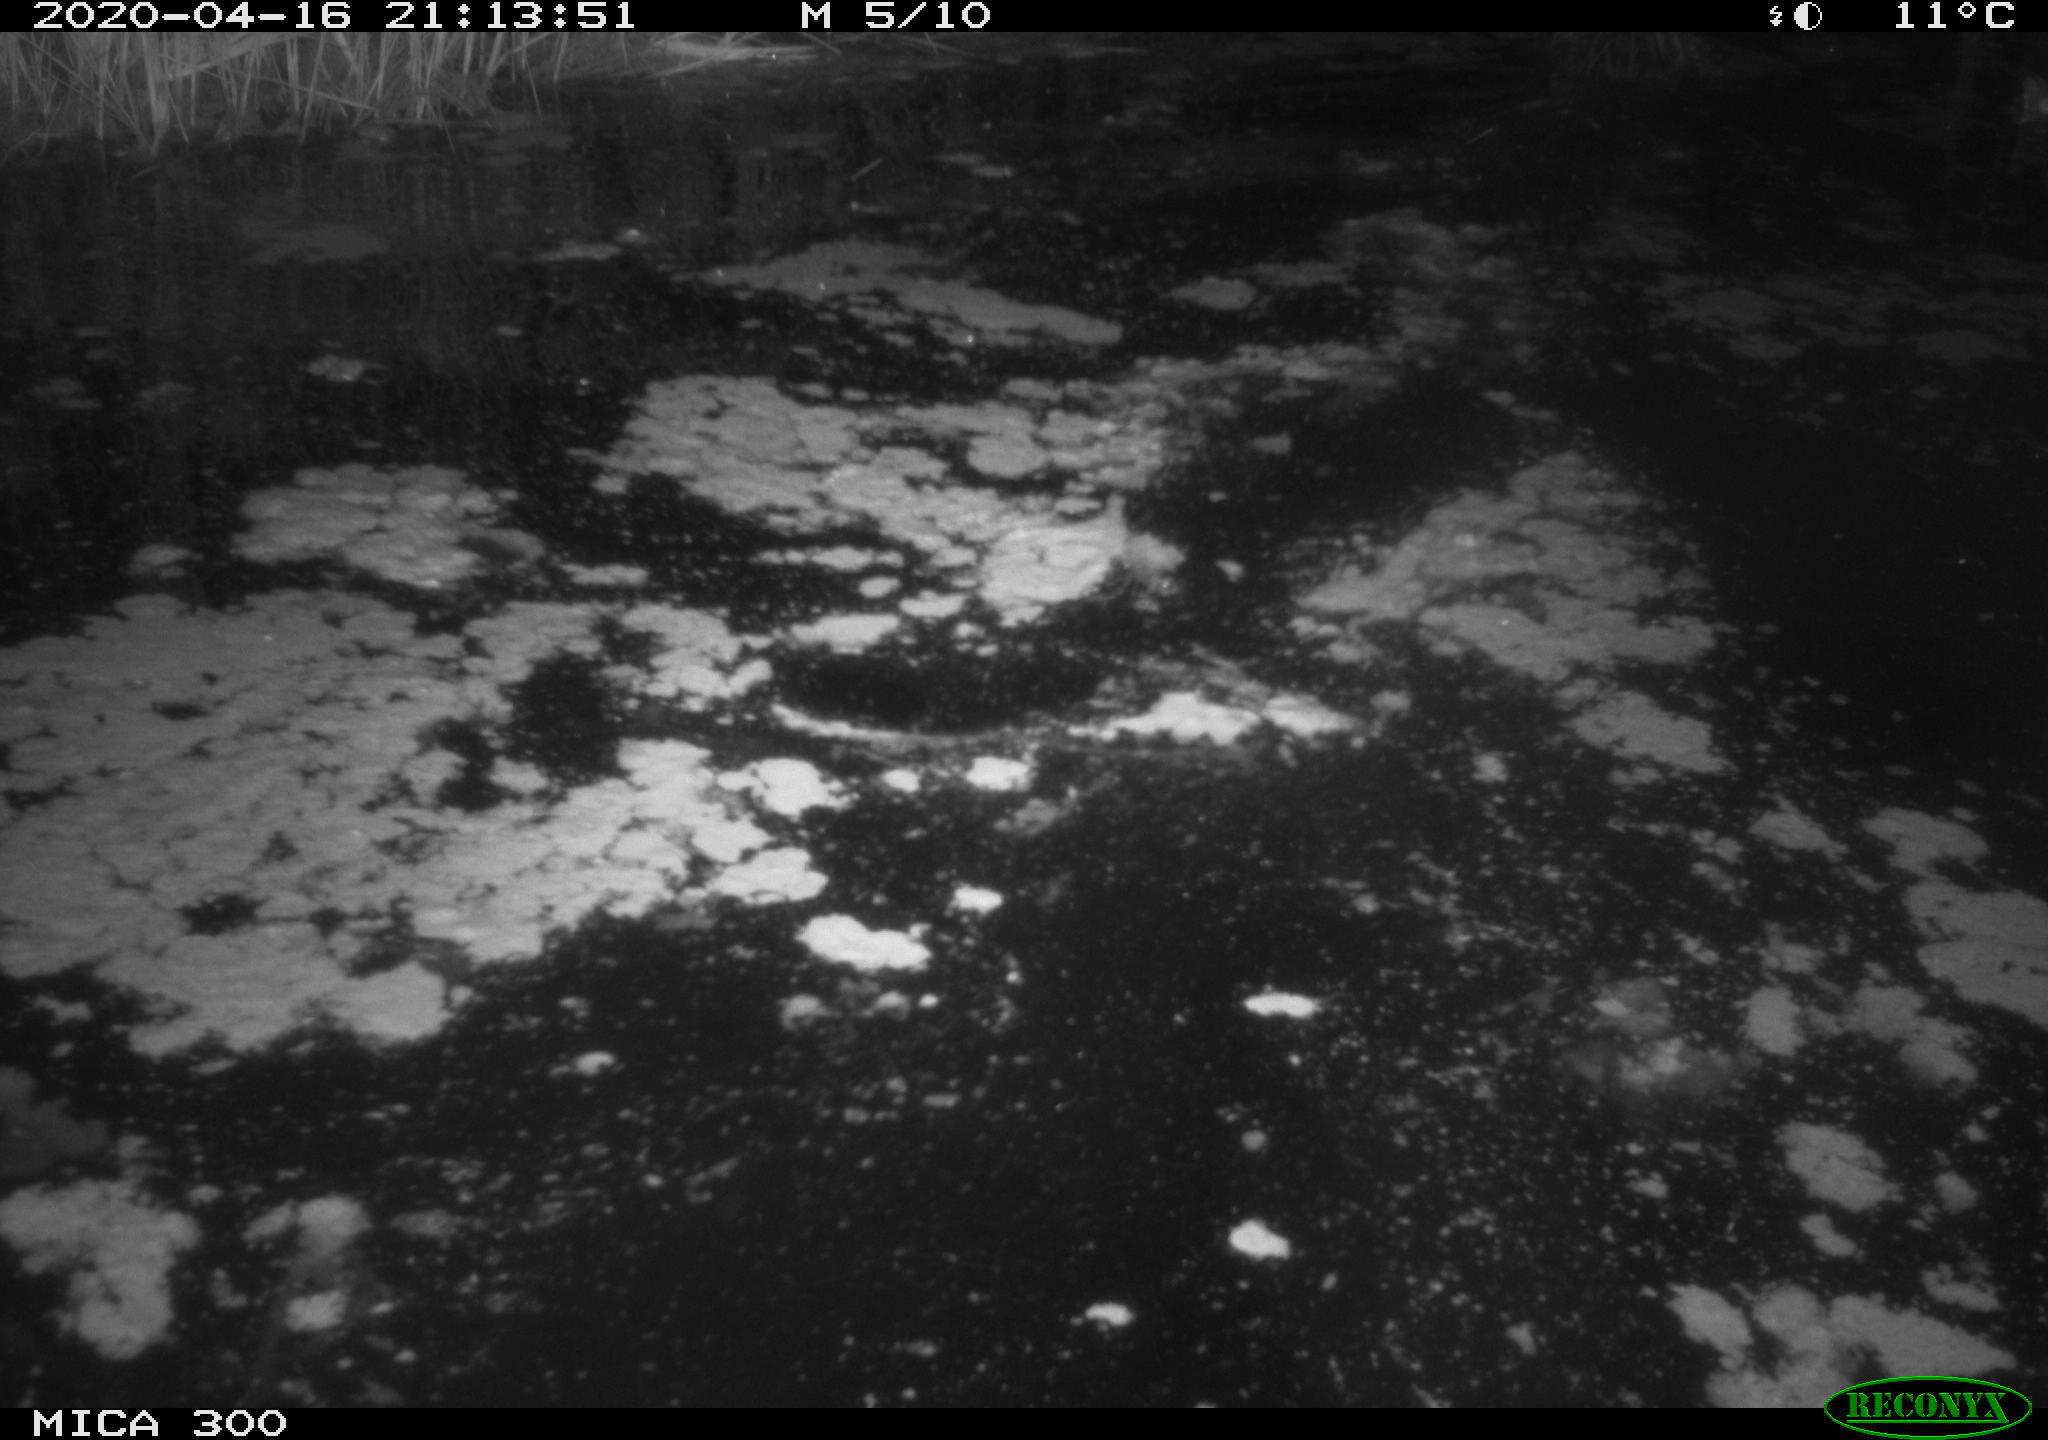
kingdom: Animalia
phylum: Chordata
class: Mammalia
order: Rodentia
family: Castoridae
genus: Castor
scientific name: Castor fiber
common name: Eurasian beaver
